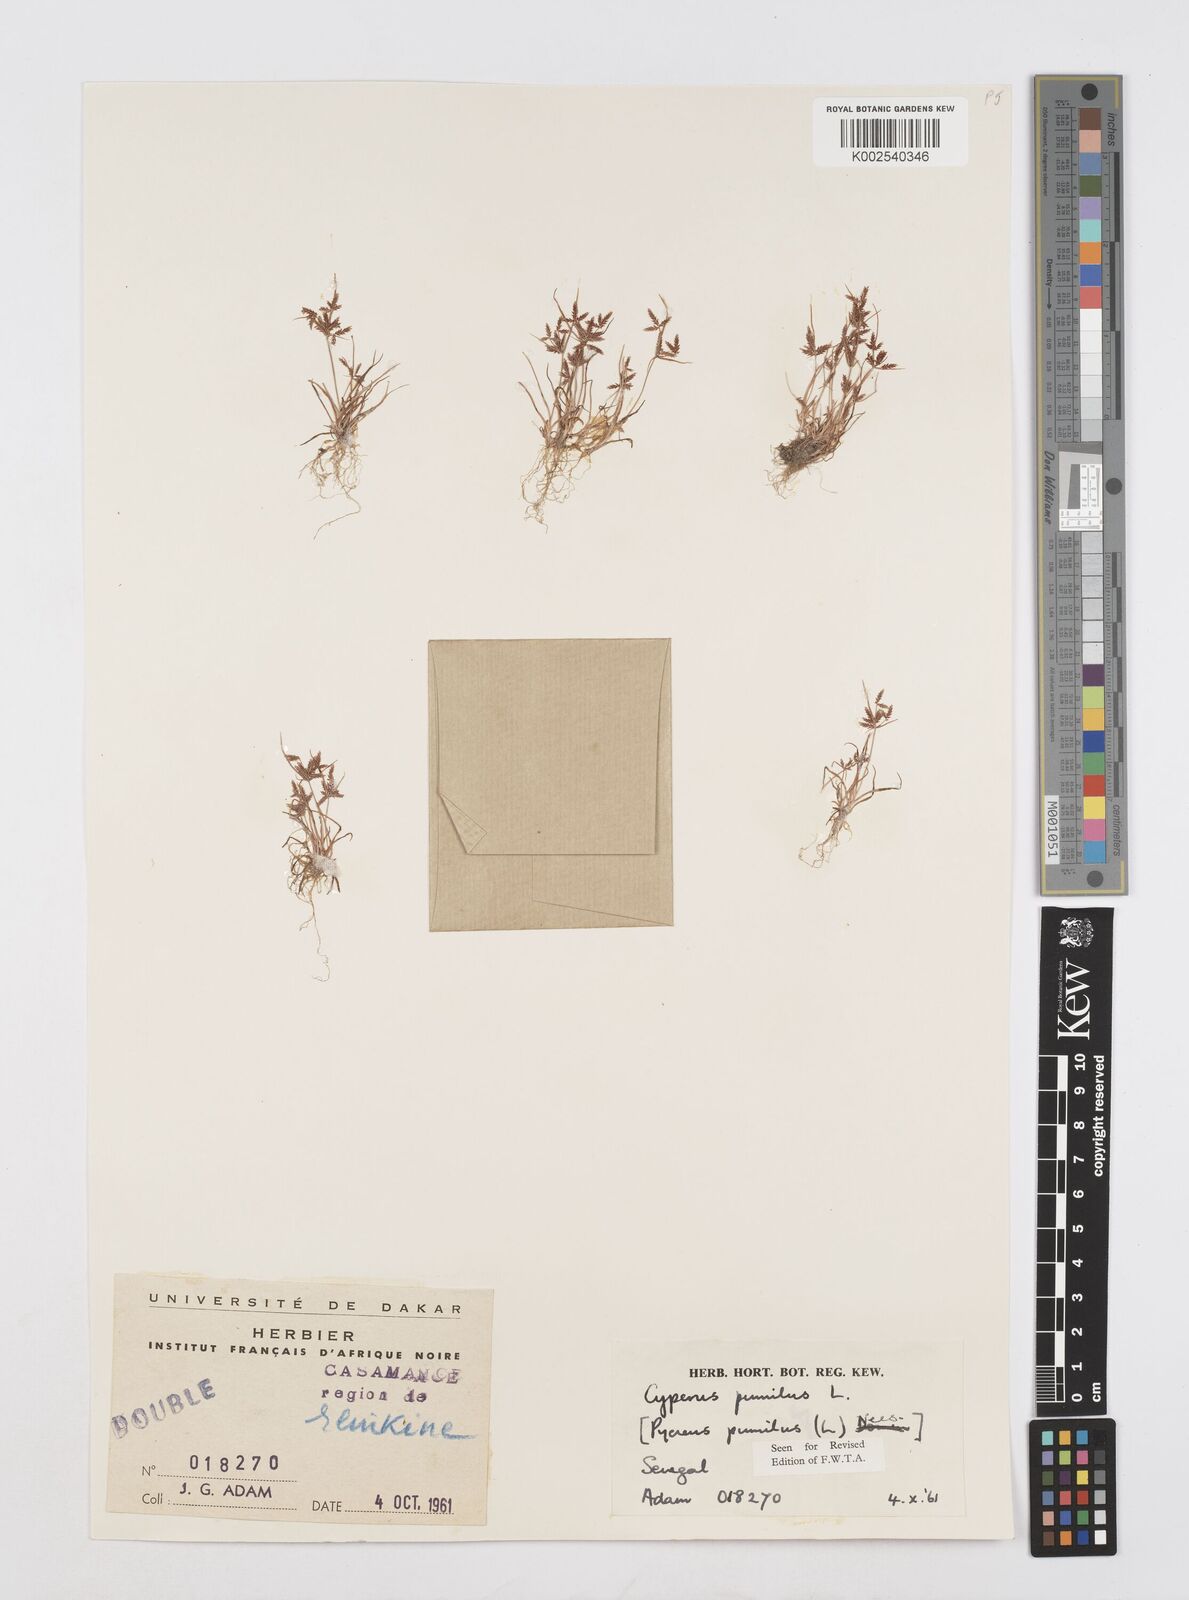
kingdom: Plantae
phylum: Tracheophyta
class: Liliopsida
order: Poales
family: Cyperaceae
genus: Cyperus
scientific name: Cyperus pumilus
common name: Low flatsedge
